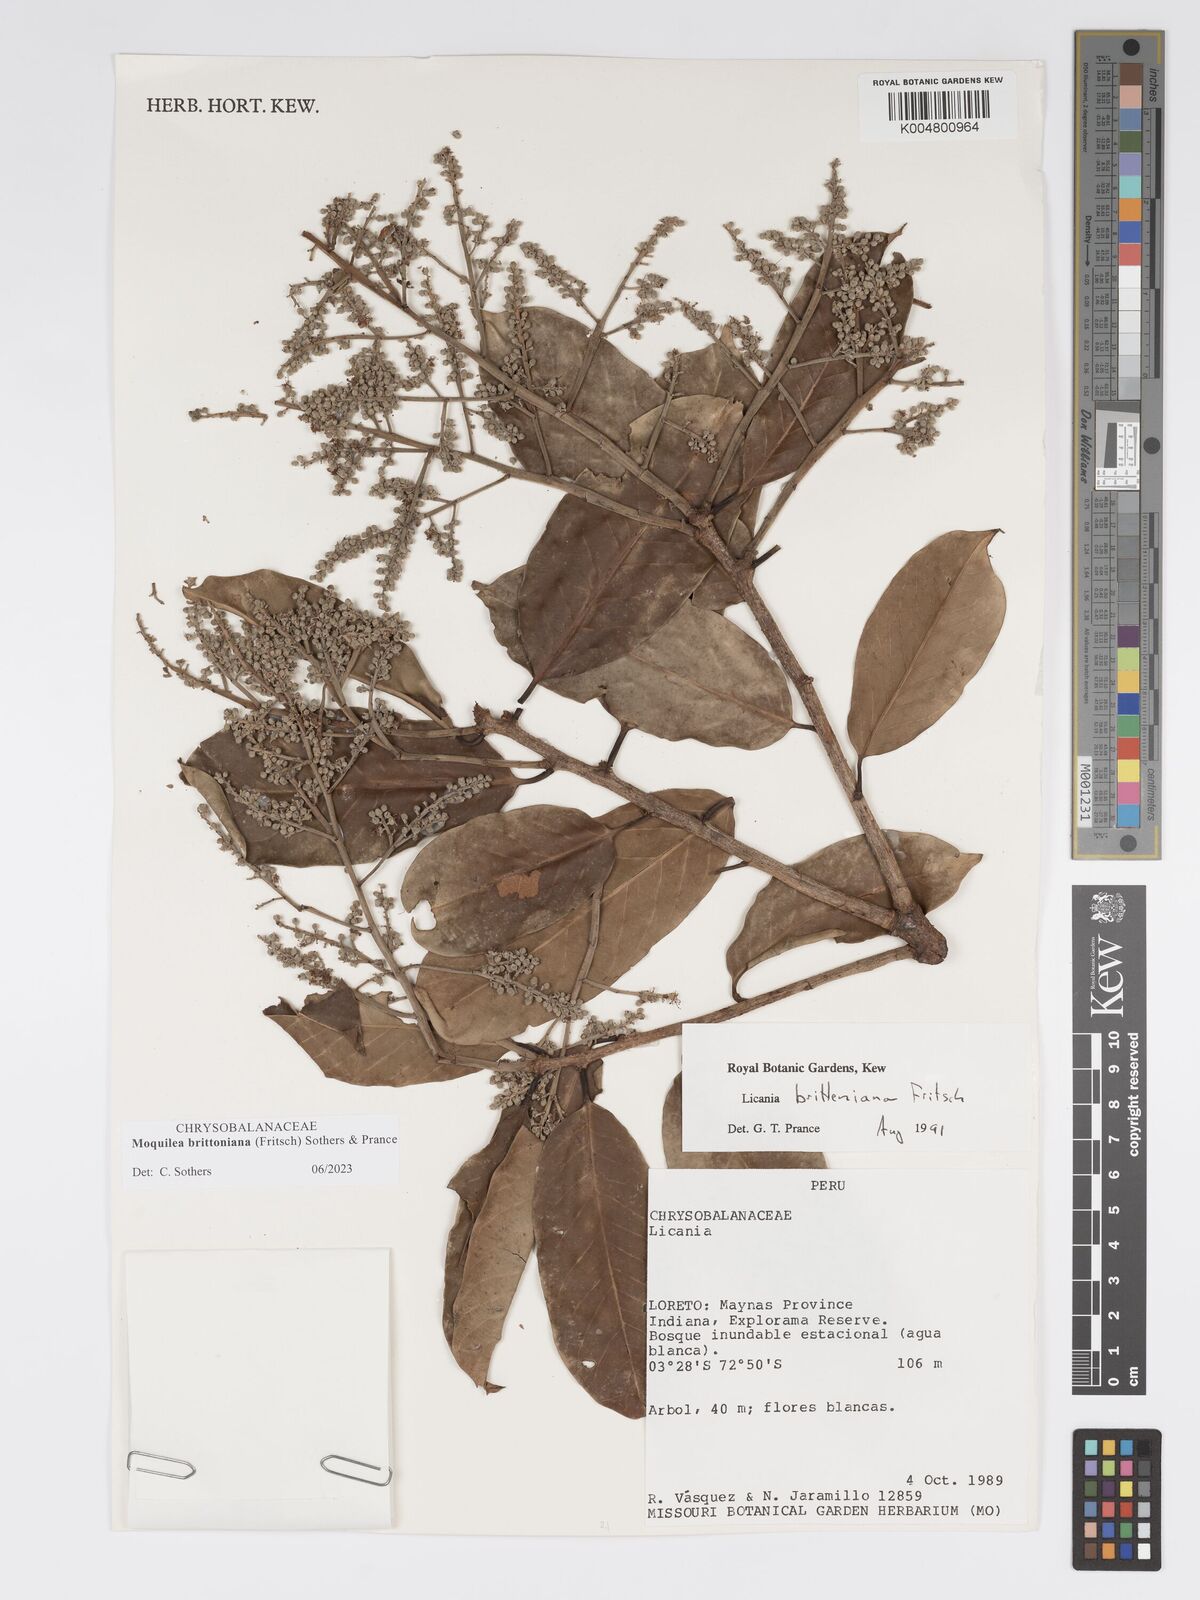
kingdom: Plantae
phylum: Tracheophyta
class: Magnoliopsida
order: Malpighiales
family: Chrysobalanaceae
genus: Moquilea
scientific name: Moquilea brittoniana
